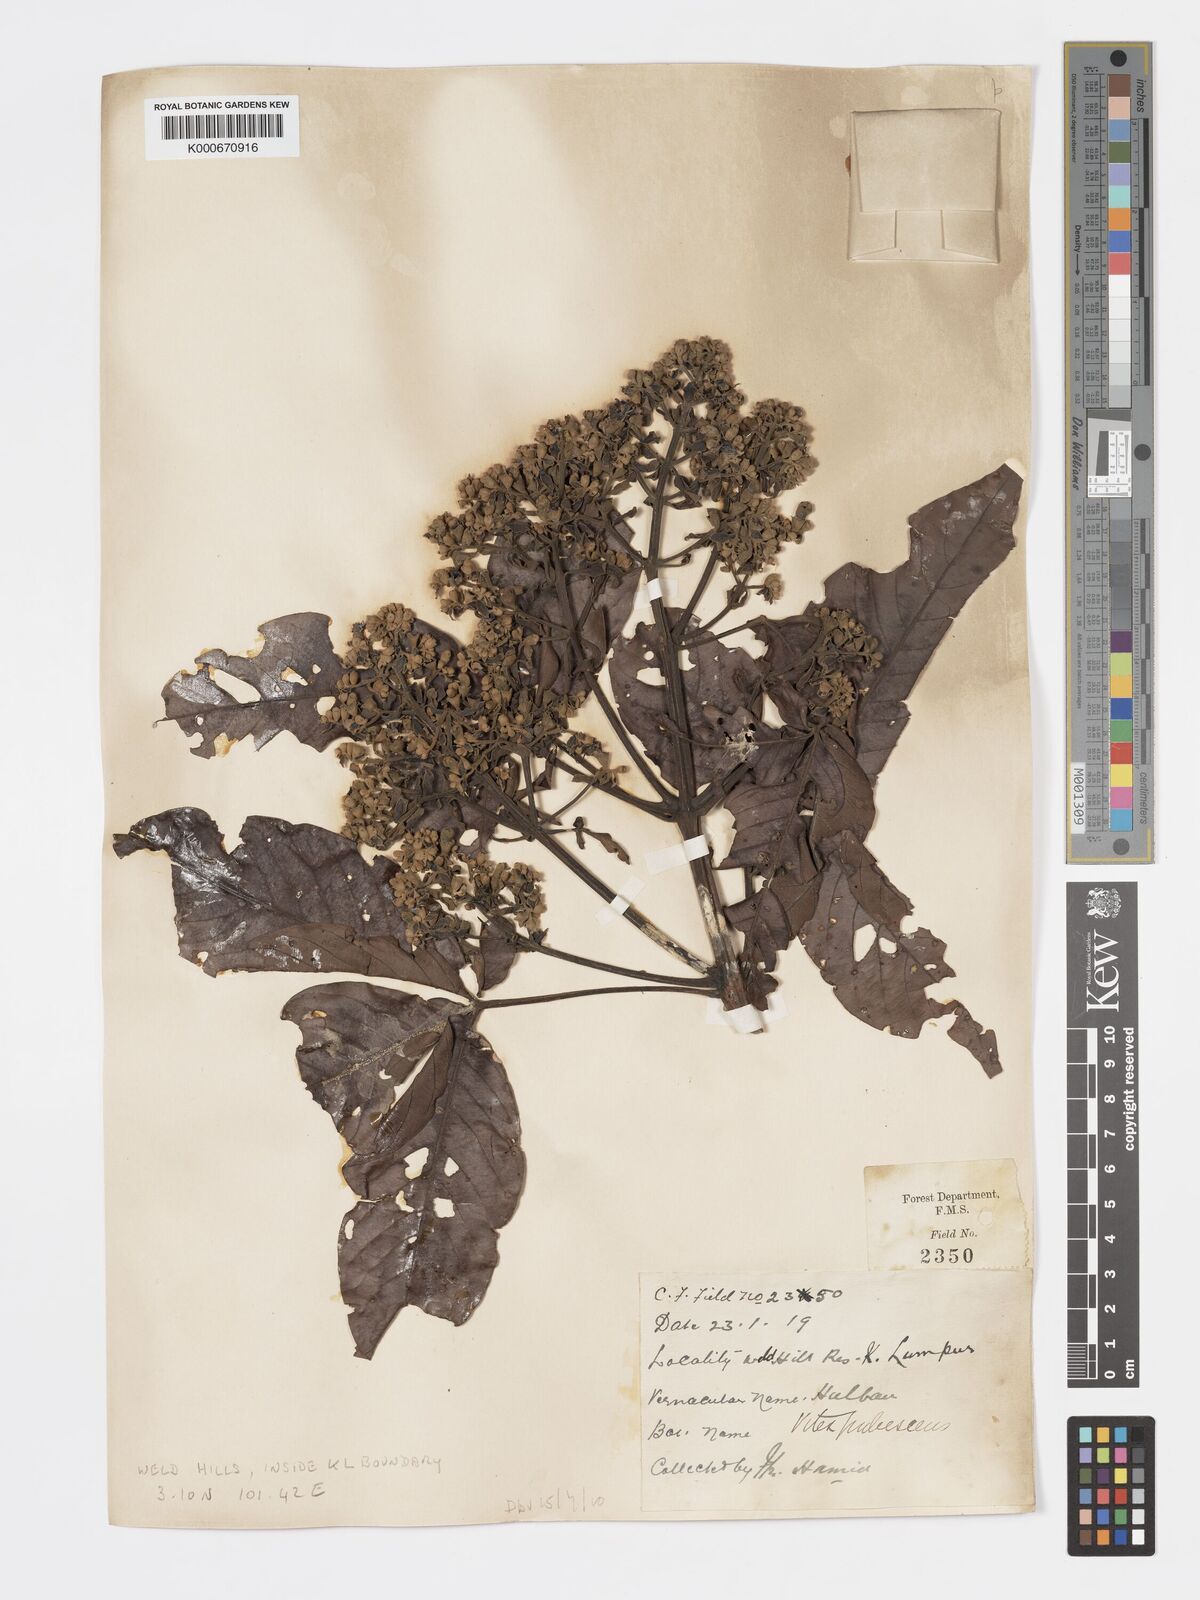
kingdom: Plantae
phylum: Tracheophyta
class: Magnoliopsida
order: Lamiales
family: Lamiaceae
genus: Vitex
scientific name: Vitex pinnata
